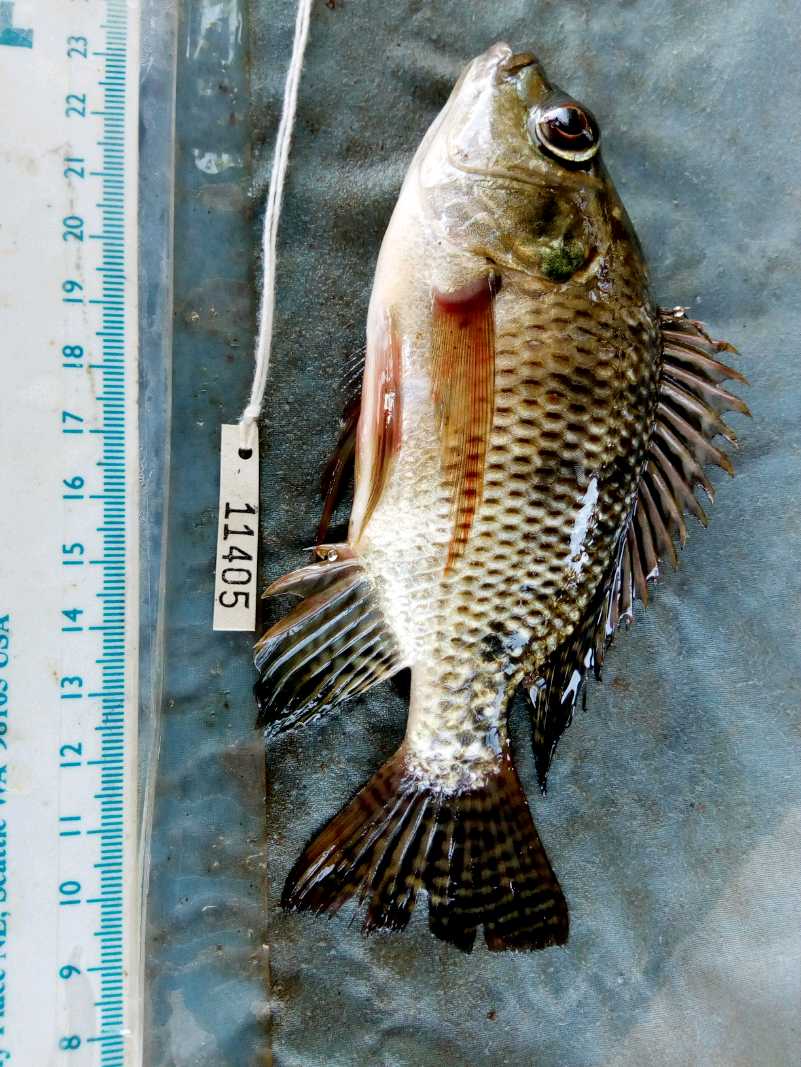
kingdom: Animalia
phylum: Chordata
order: Perciformes
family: Cichlidae
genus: Oreochromis
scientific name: Oreochromis spilurus
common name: Sabaki tilapia
